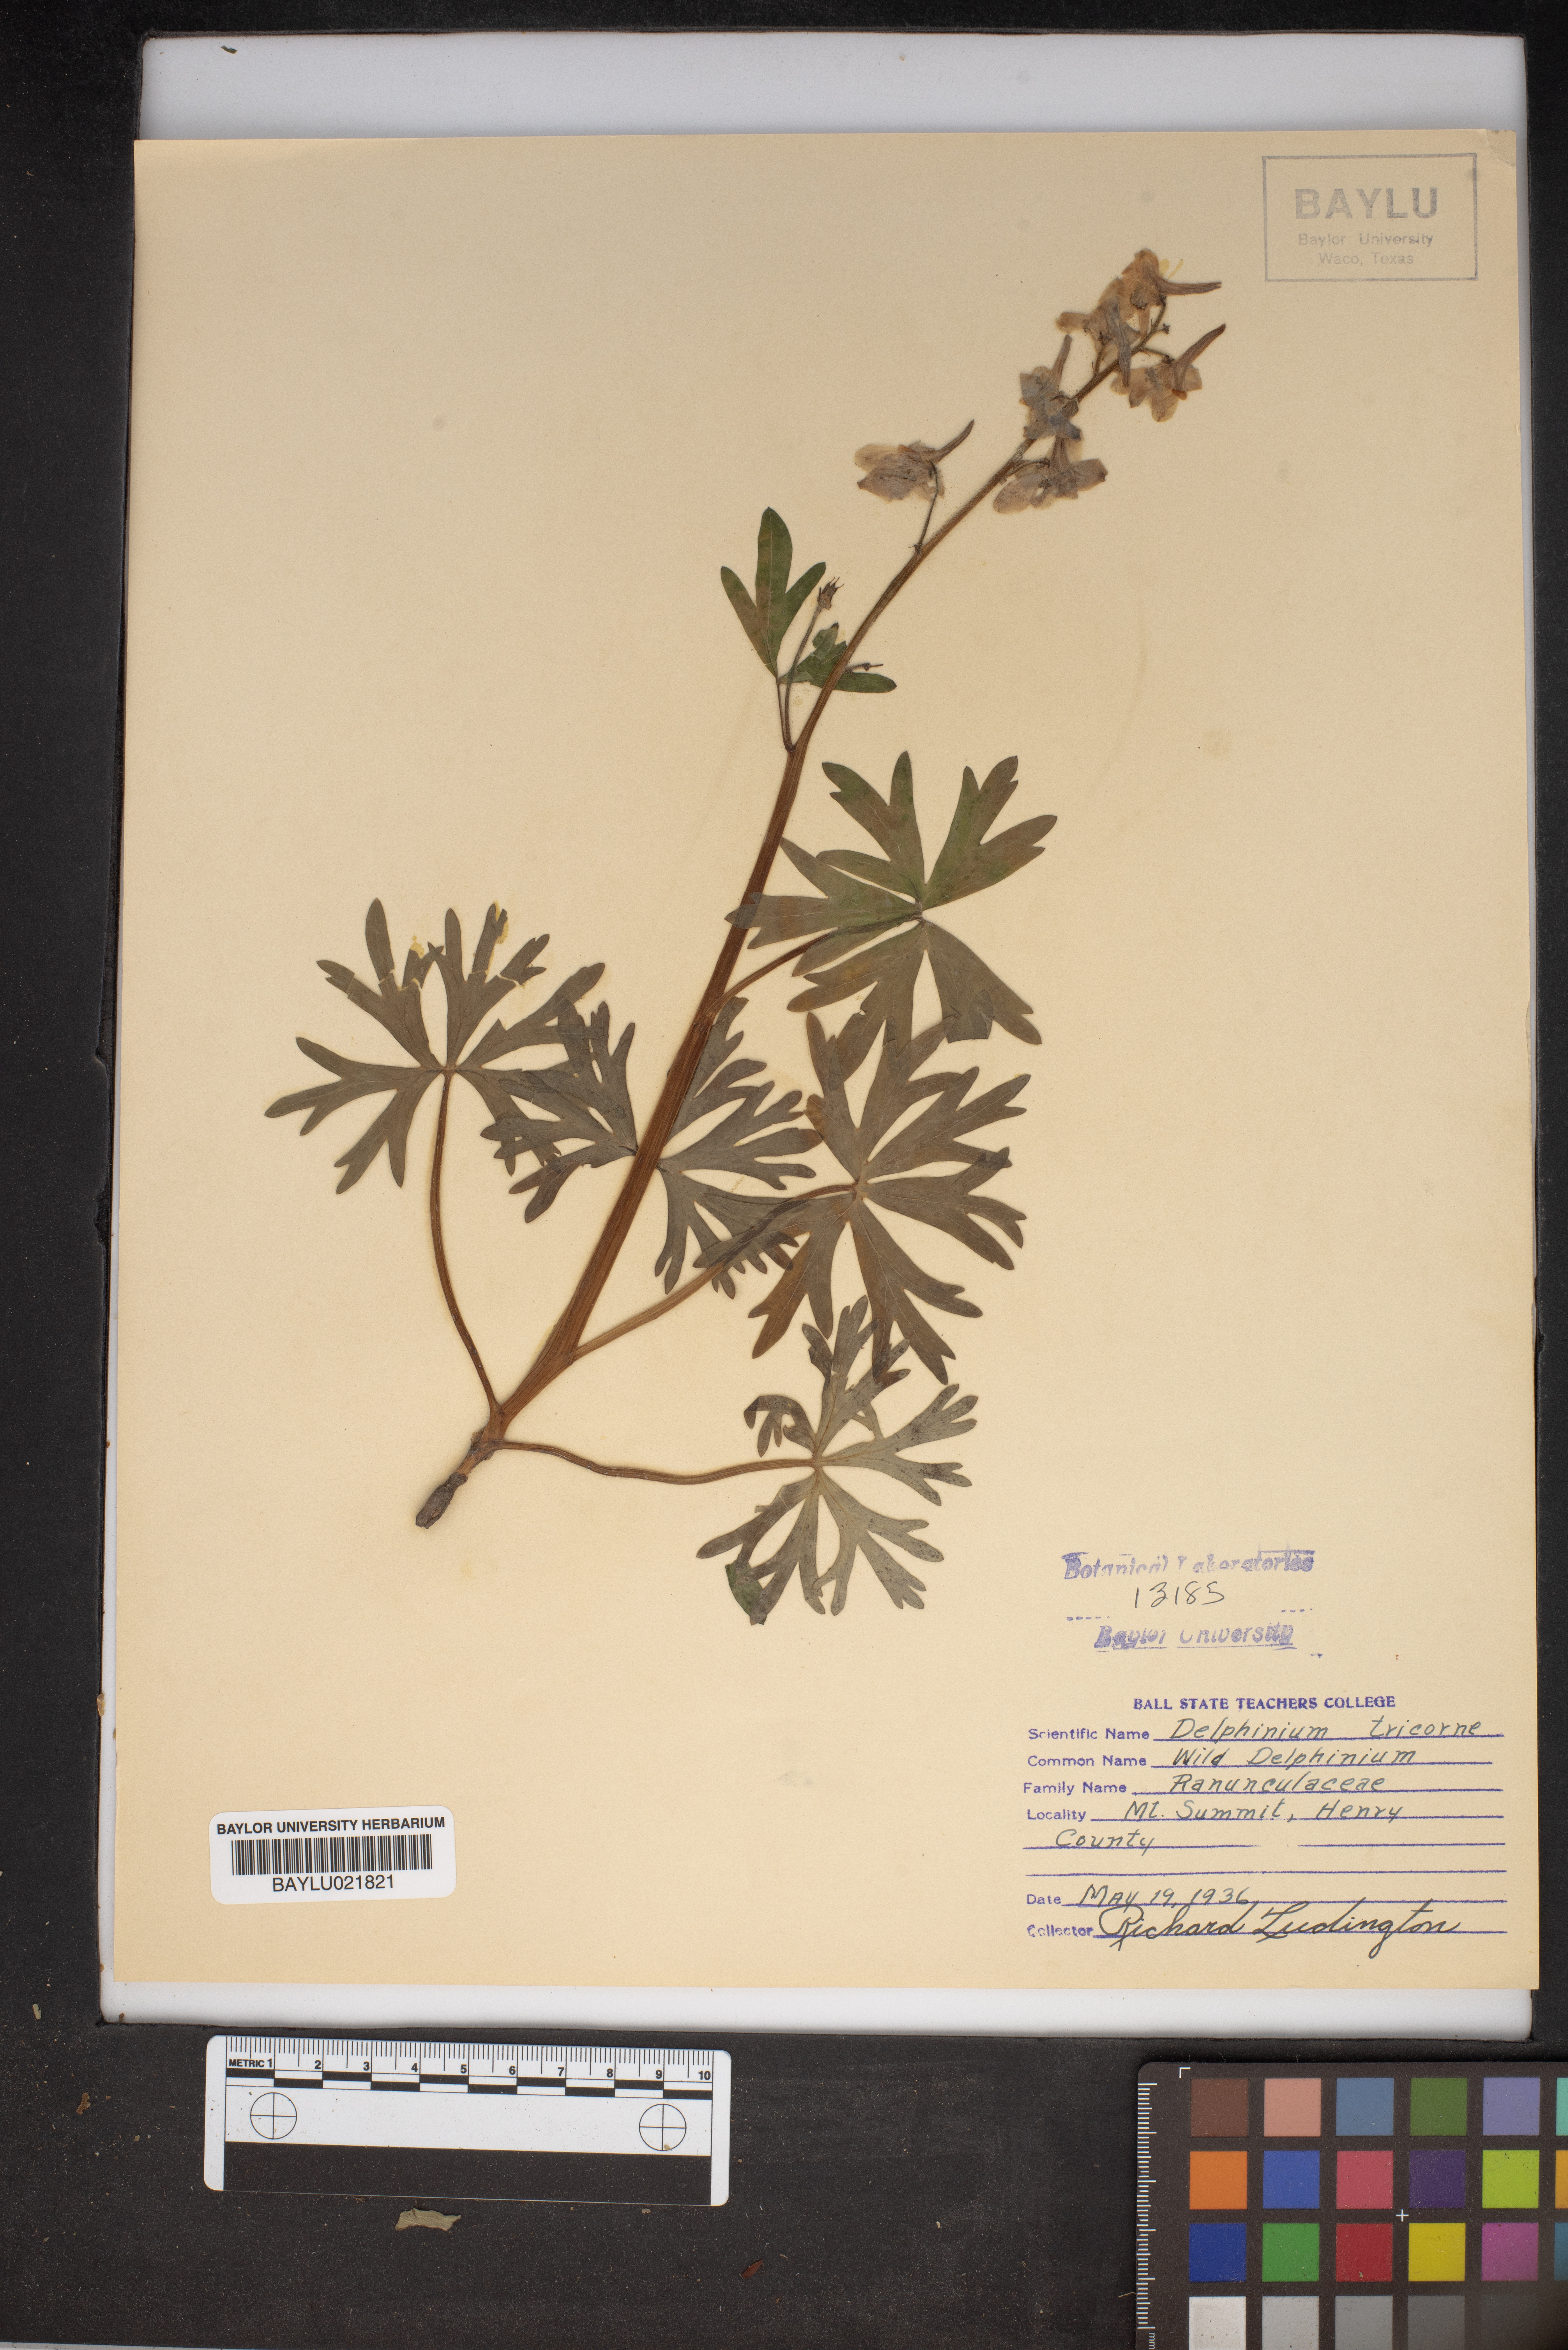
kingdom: Plantae
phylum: Tracheophyta
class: Magnoliopsida
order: Ranunculales
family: Ranunculaceae
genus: Delphinium
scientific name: Delphinium tricorne
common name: Dwarf larkspur
